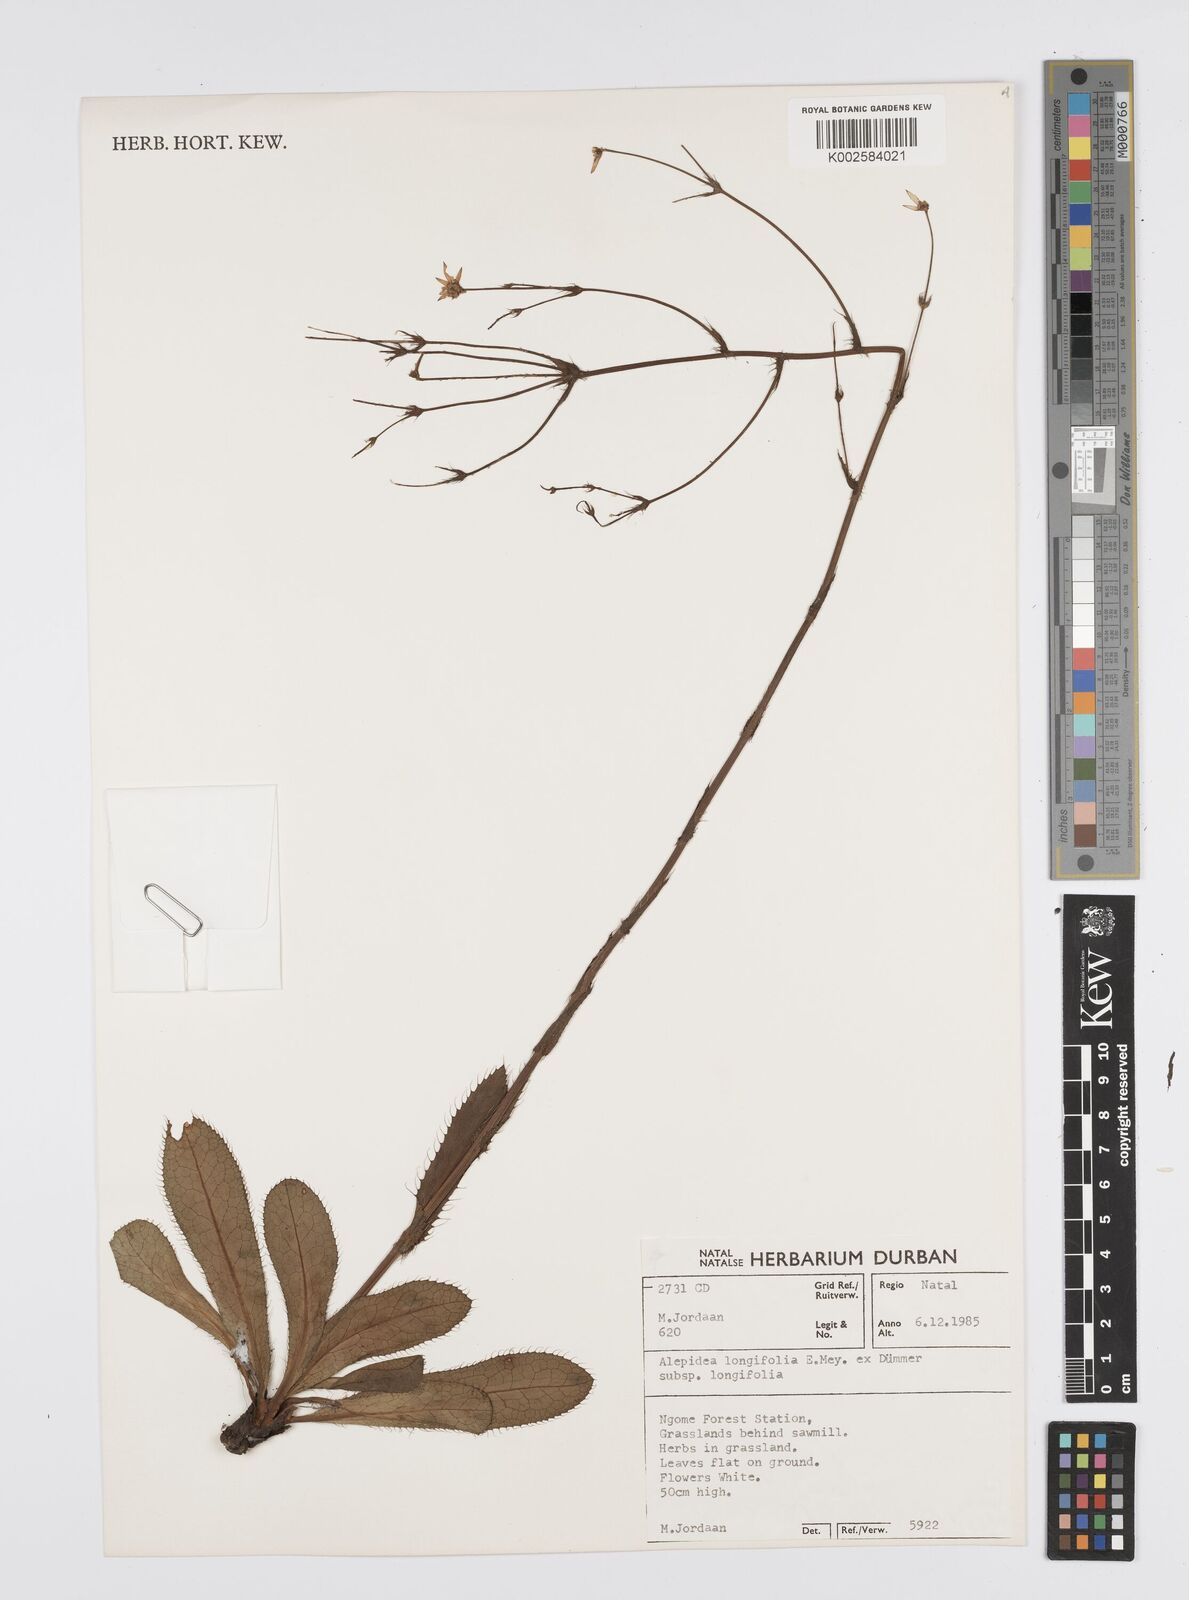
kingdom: Plantae
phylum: Tracheophyta
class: Magnoliopsida
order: Apiales
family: Apiaceae
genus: Alepidea
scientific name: Alepidea
